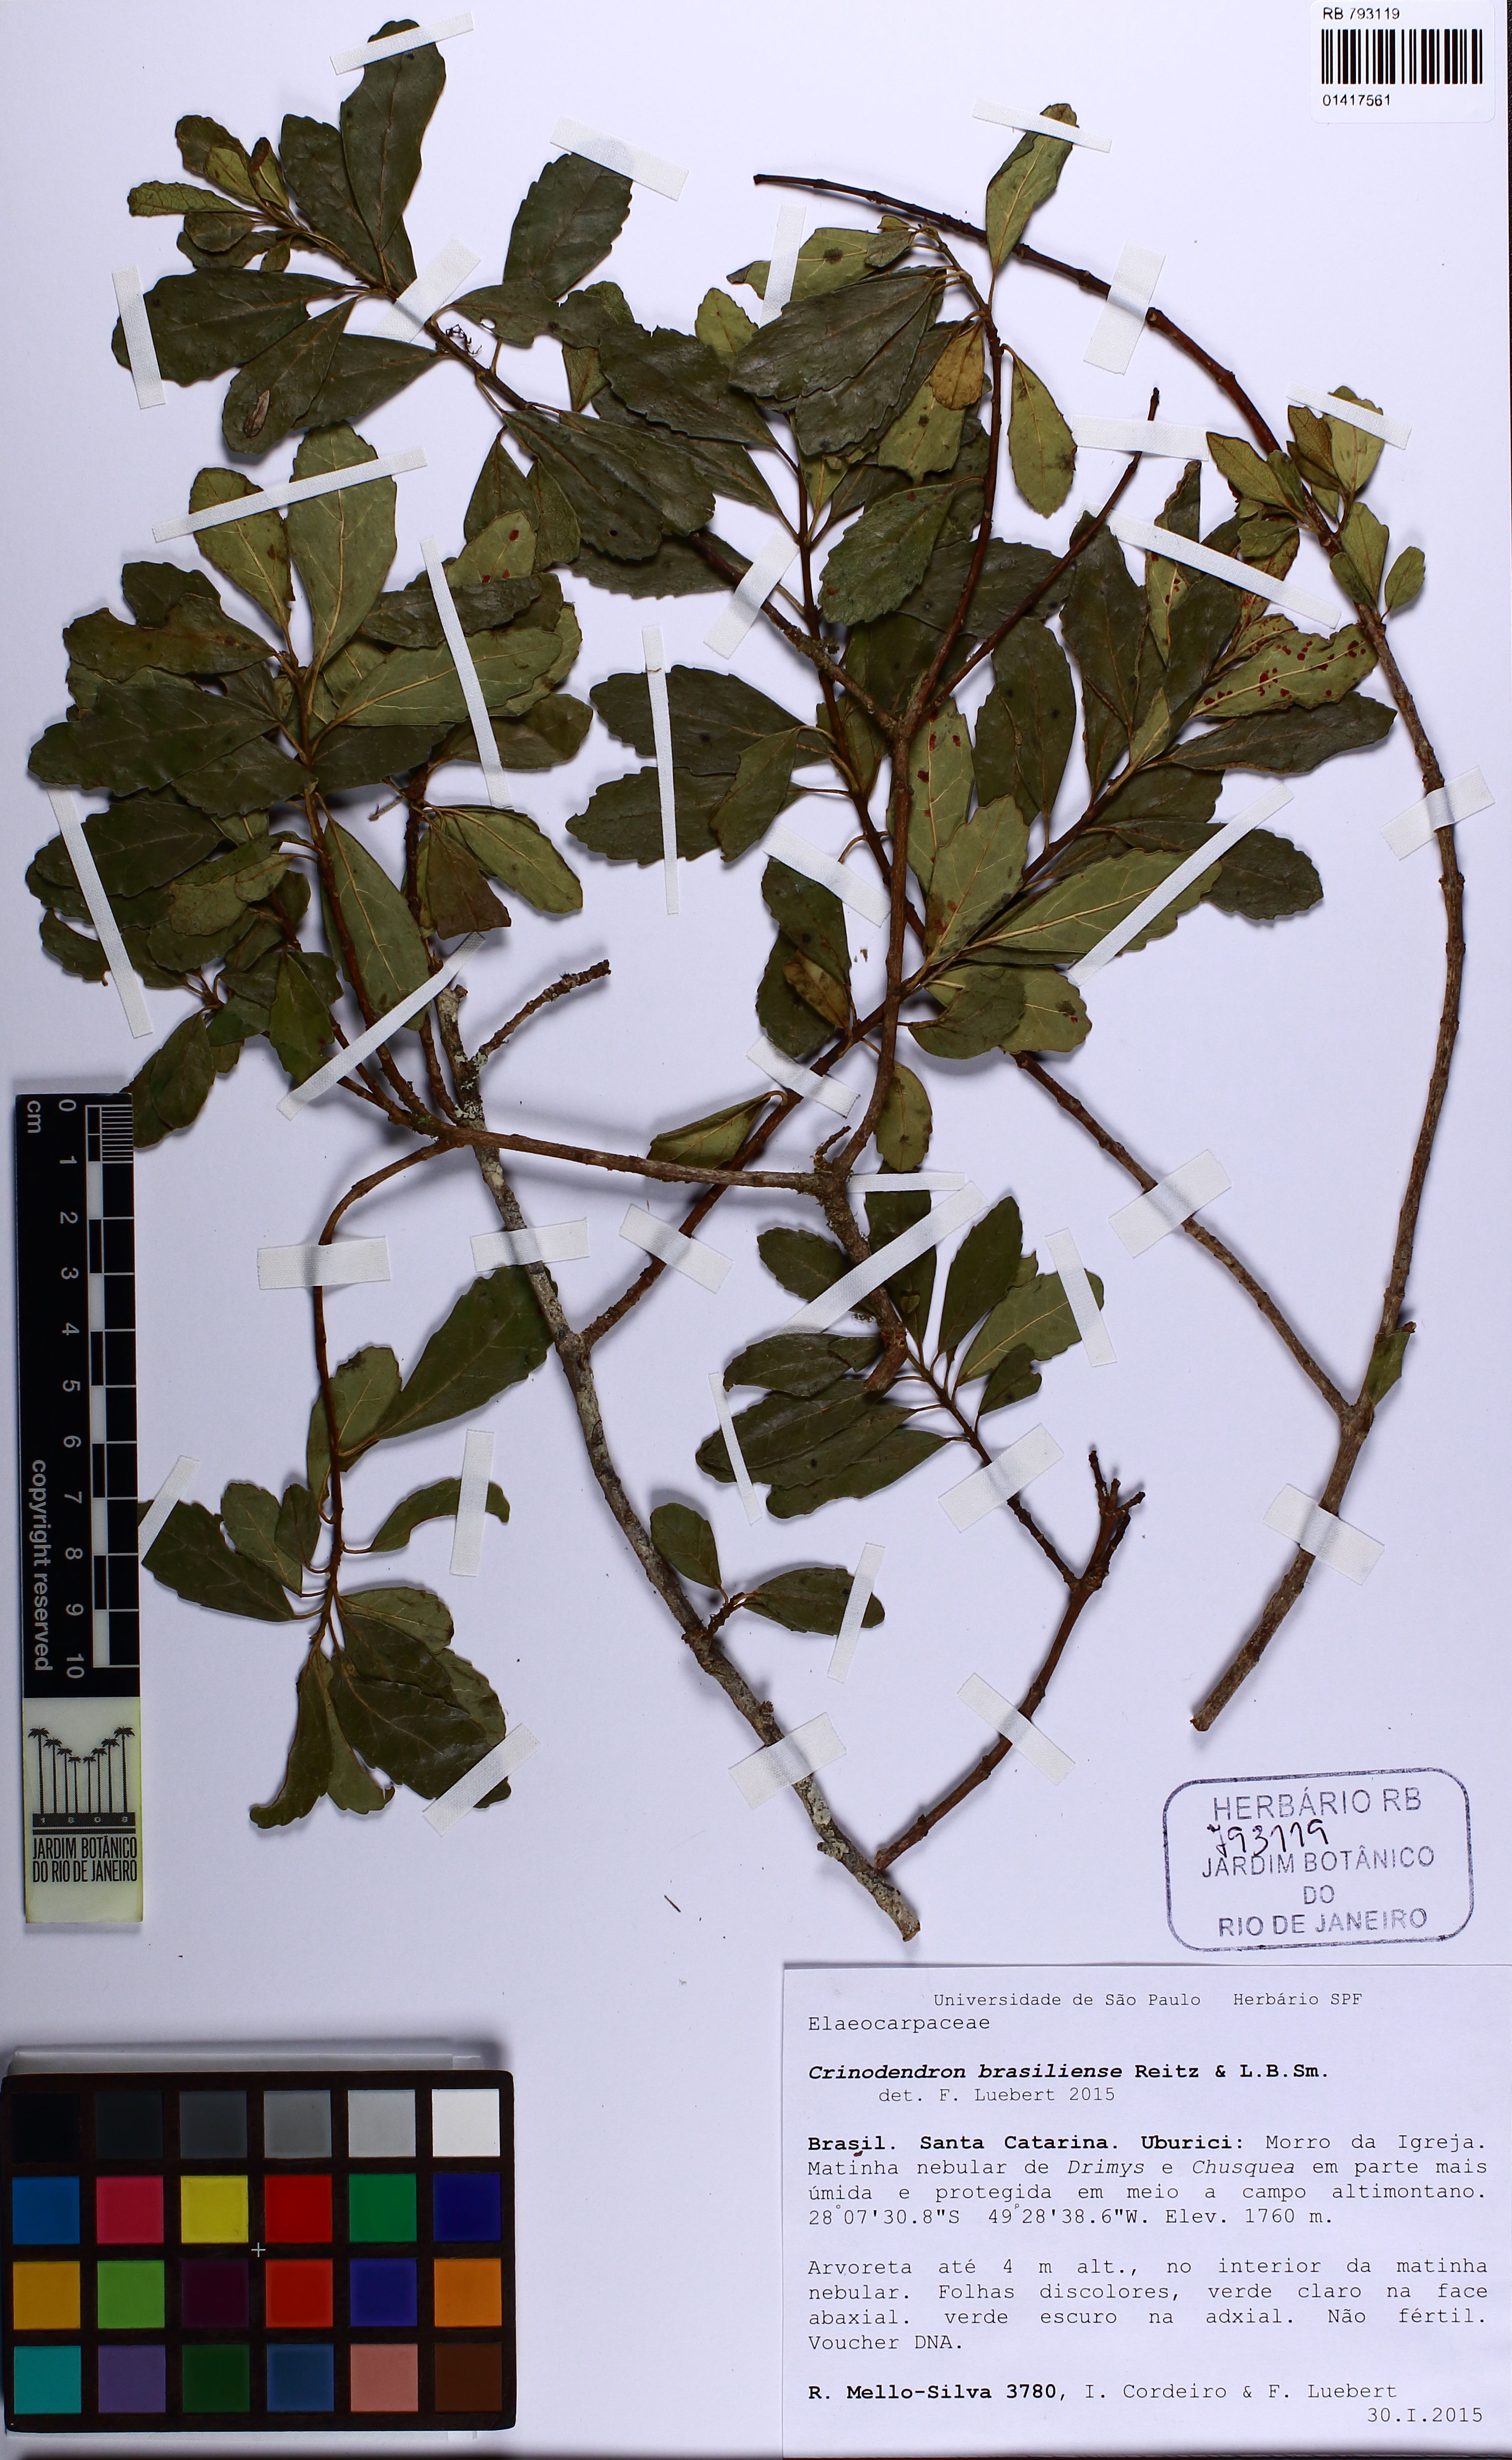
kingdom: Plantae
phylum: Tracheophyta
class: Magnoliopsida
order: Oxalidales
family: Elaeocarpaceae
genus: Crinodendron
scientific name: Crinodendron brasiliense
